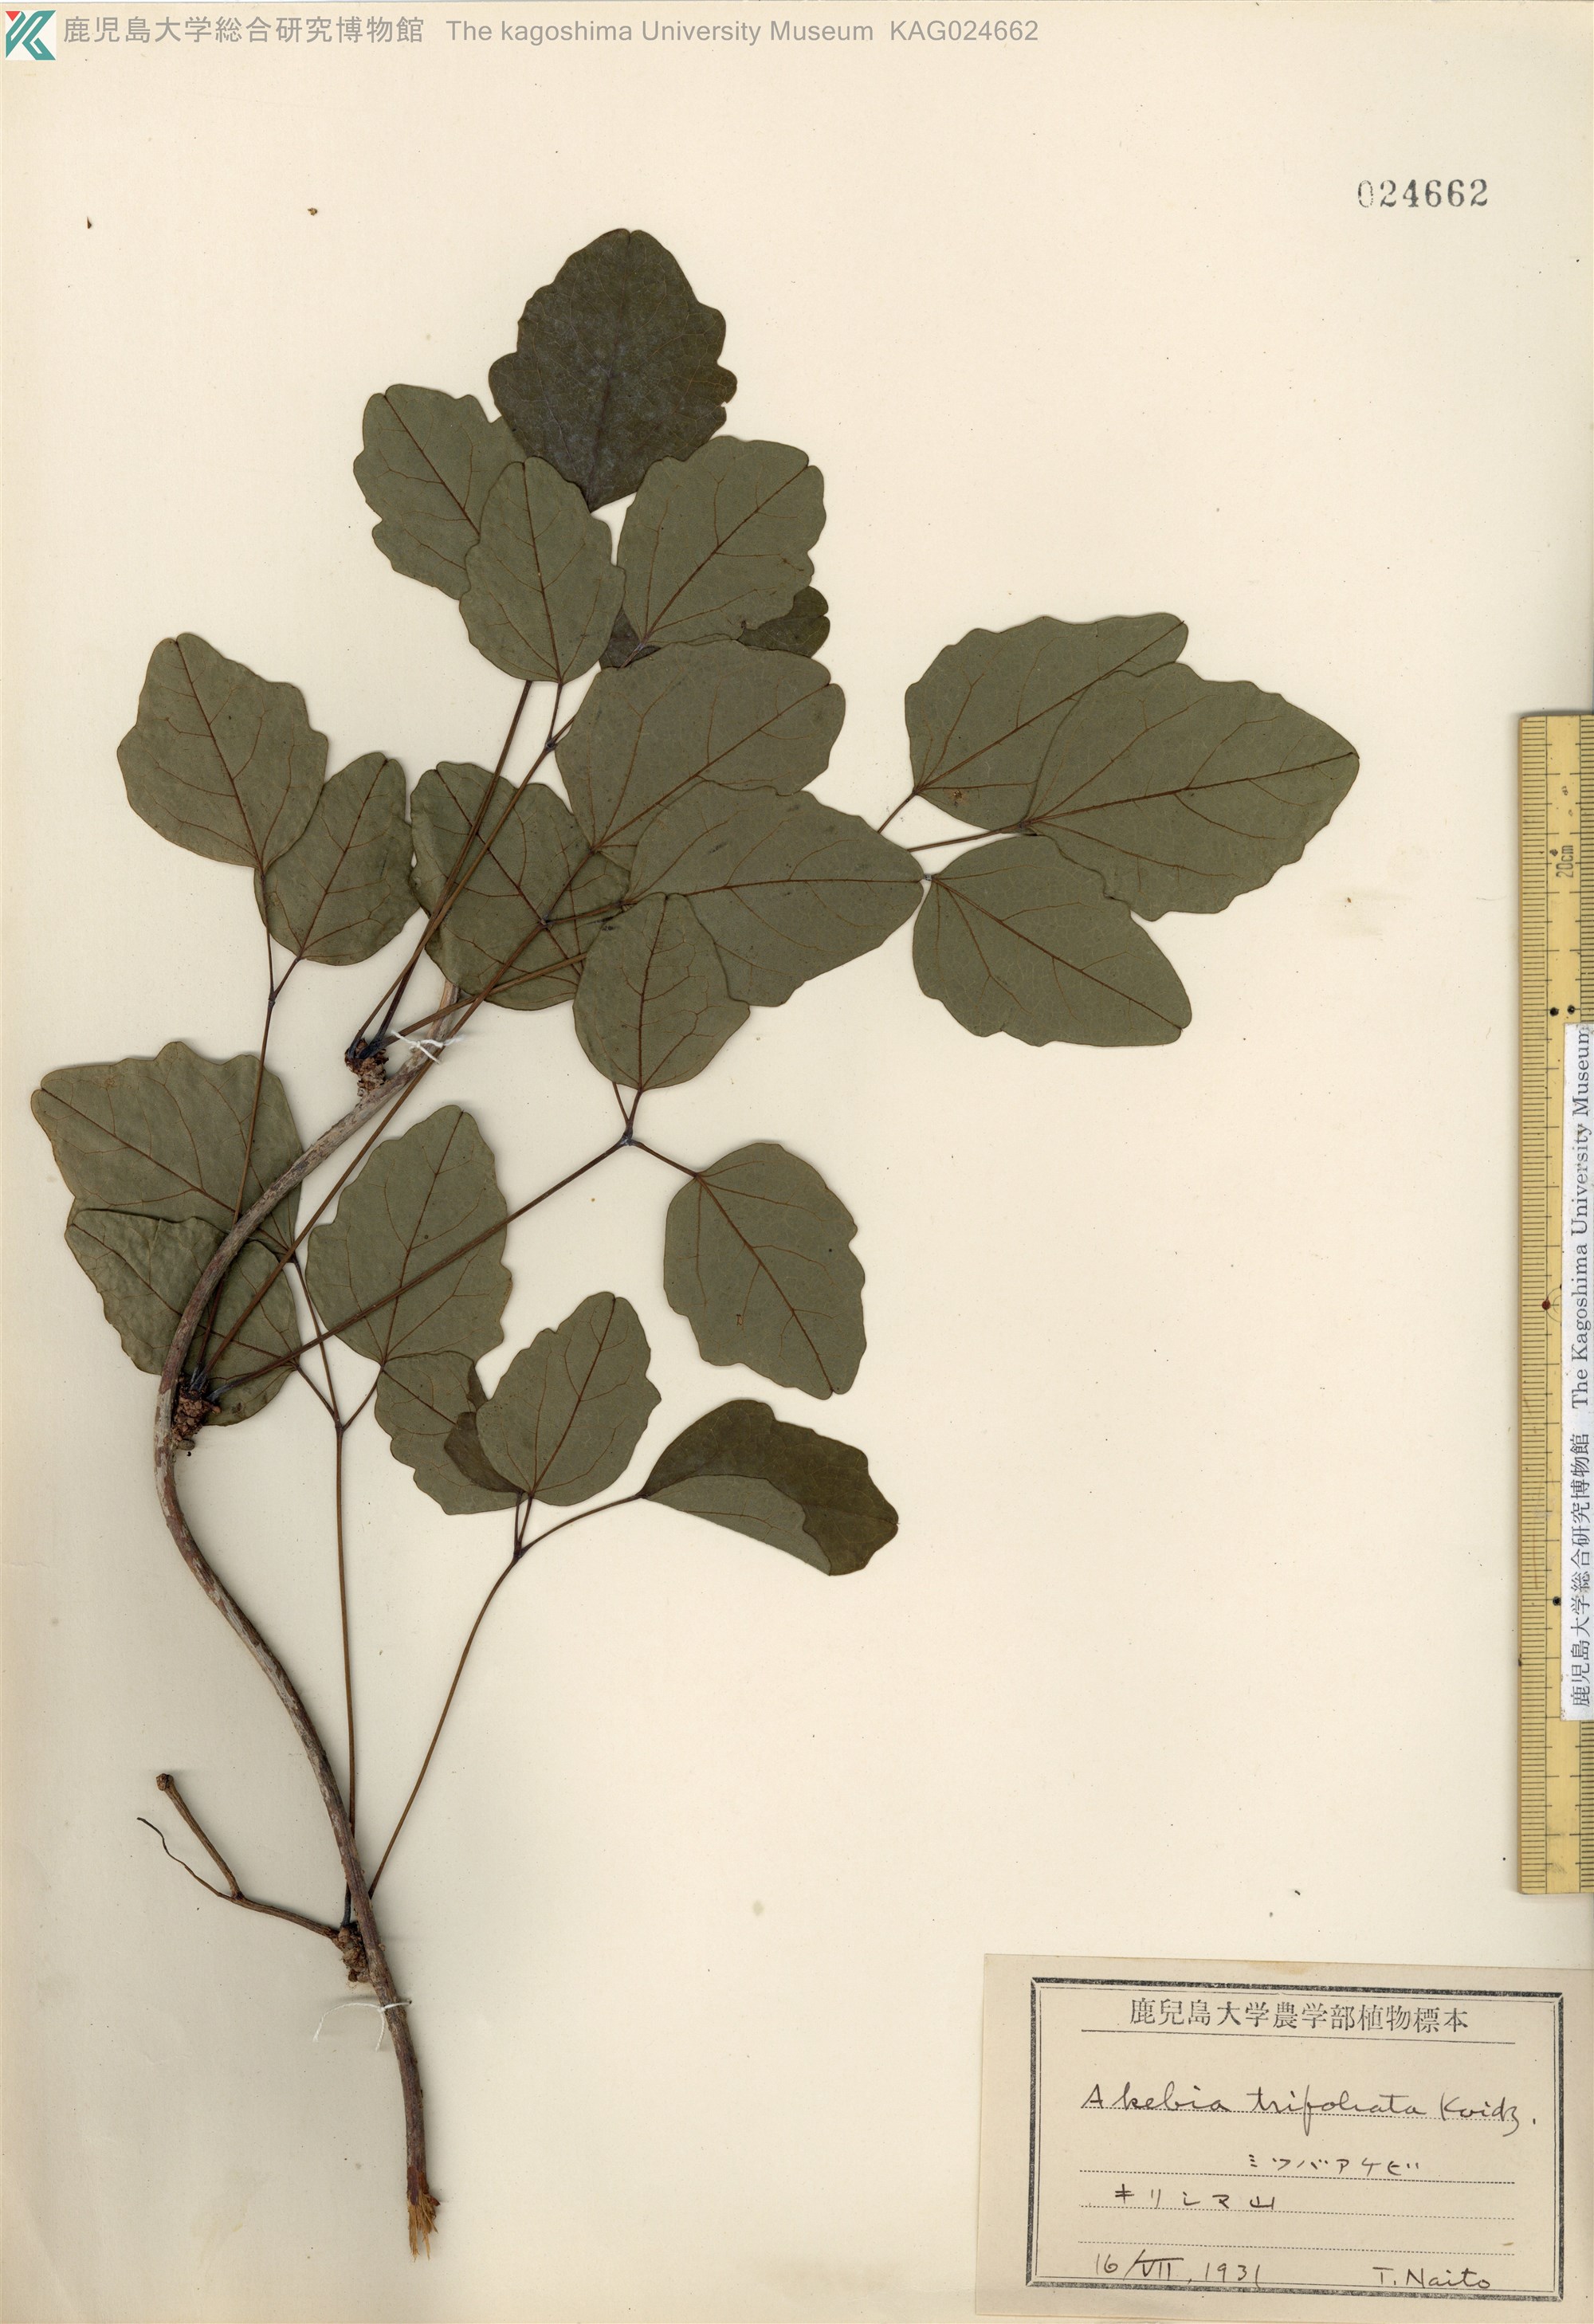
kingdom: Plantae
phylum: Tracheophyta
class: Magnoliopsida
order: Ranunculales
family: Lardizabalaceae
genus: Akebia
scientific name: Akebia trifoliata
